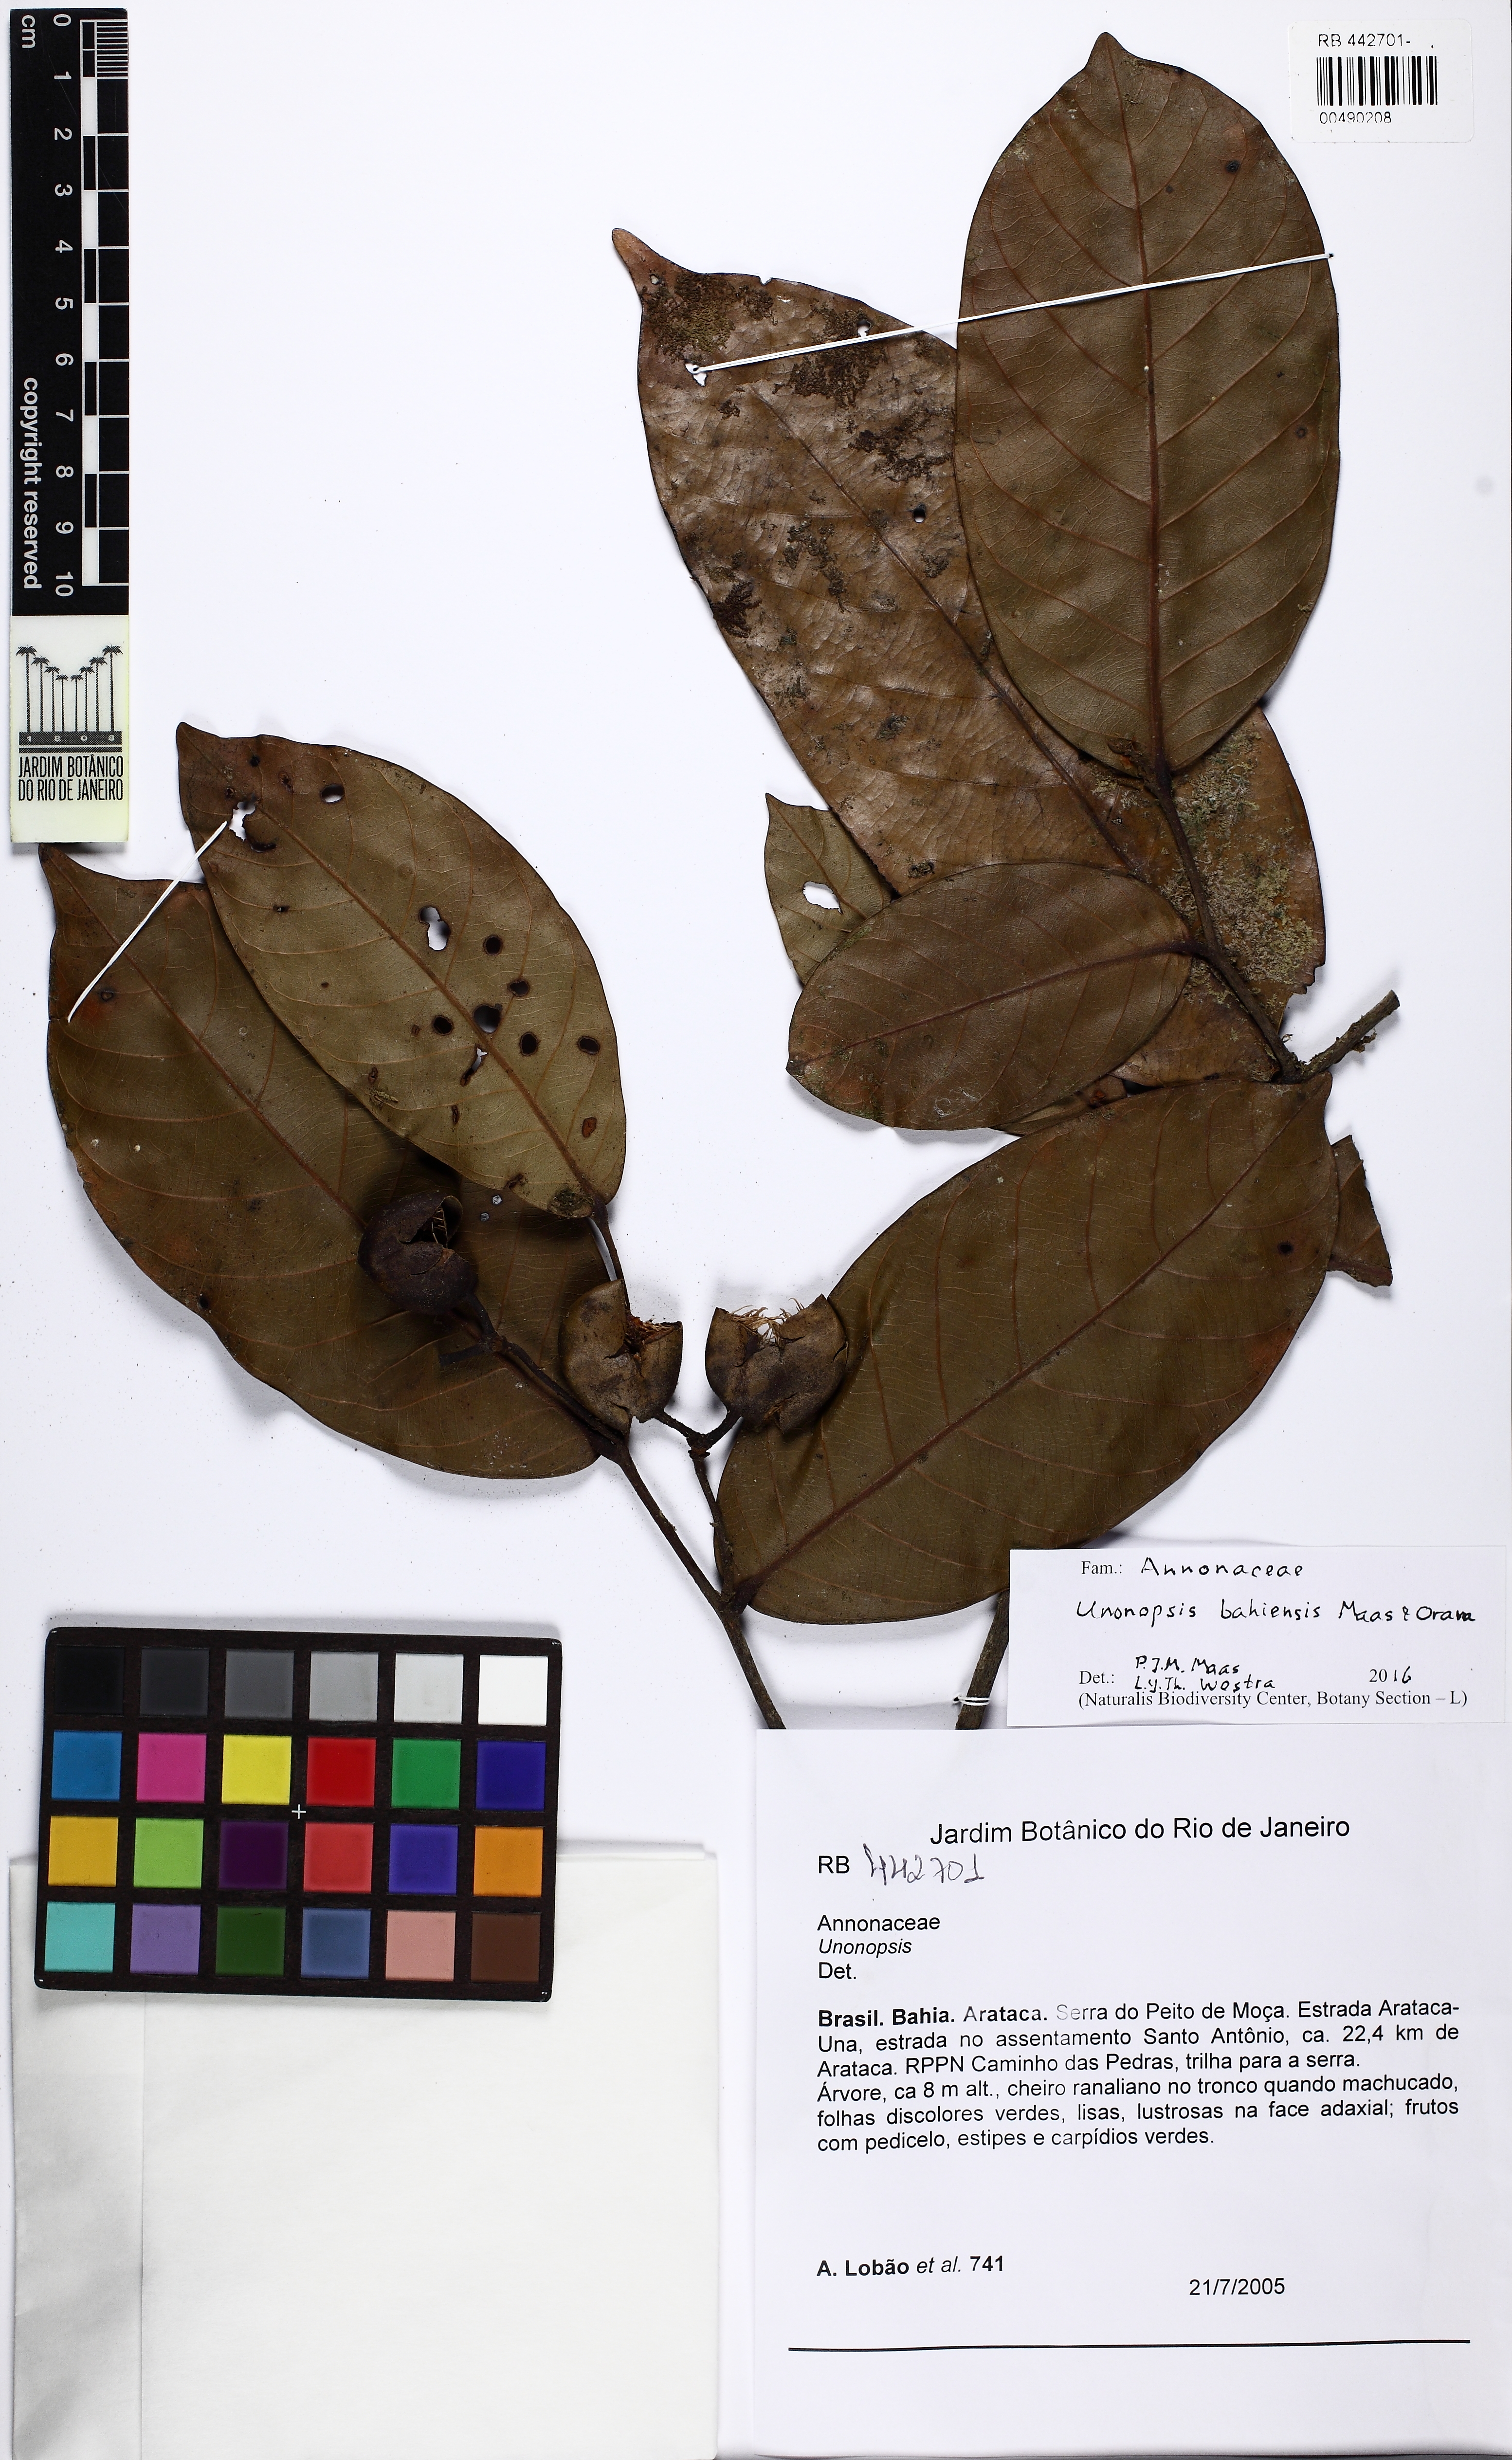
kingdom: Plantae
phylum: Tracheophyta
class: Magnoliopsida
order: Magnoliales
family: Annonaceae
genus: Unonopsis
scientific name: Unonopsis bahiensis
